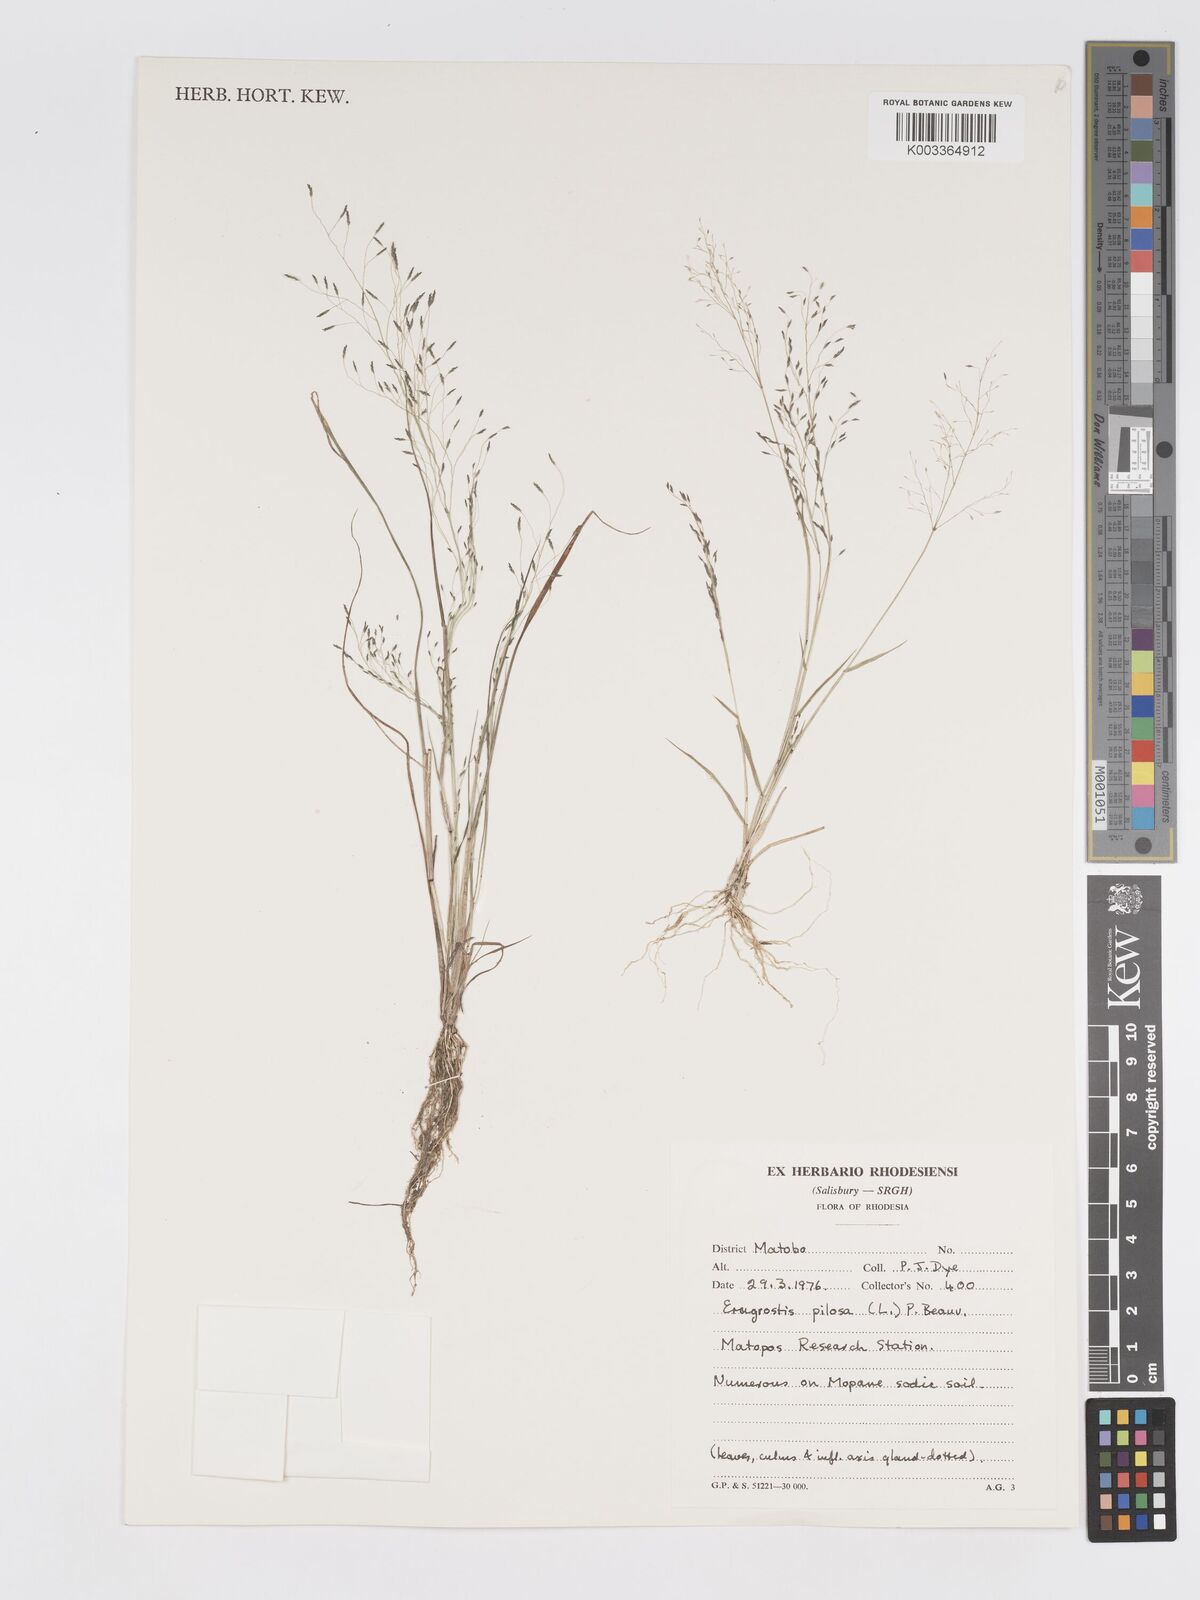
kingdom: Plantae
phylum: Tracheophyta
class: Liliopsida
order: Poales
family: Poaceae
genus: Eragrostis
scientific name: Eragrostis pilosa
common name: Indian lovegrass
